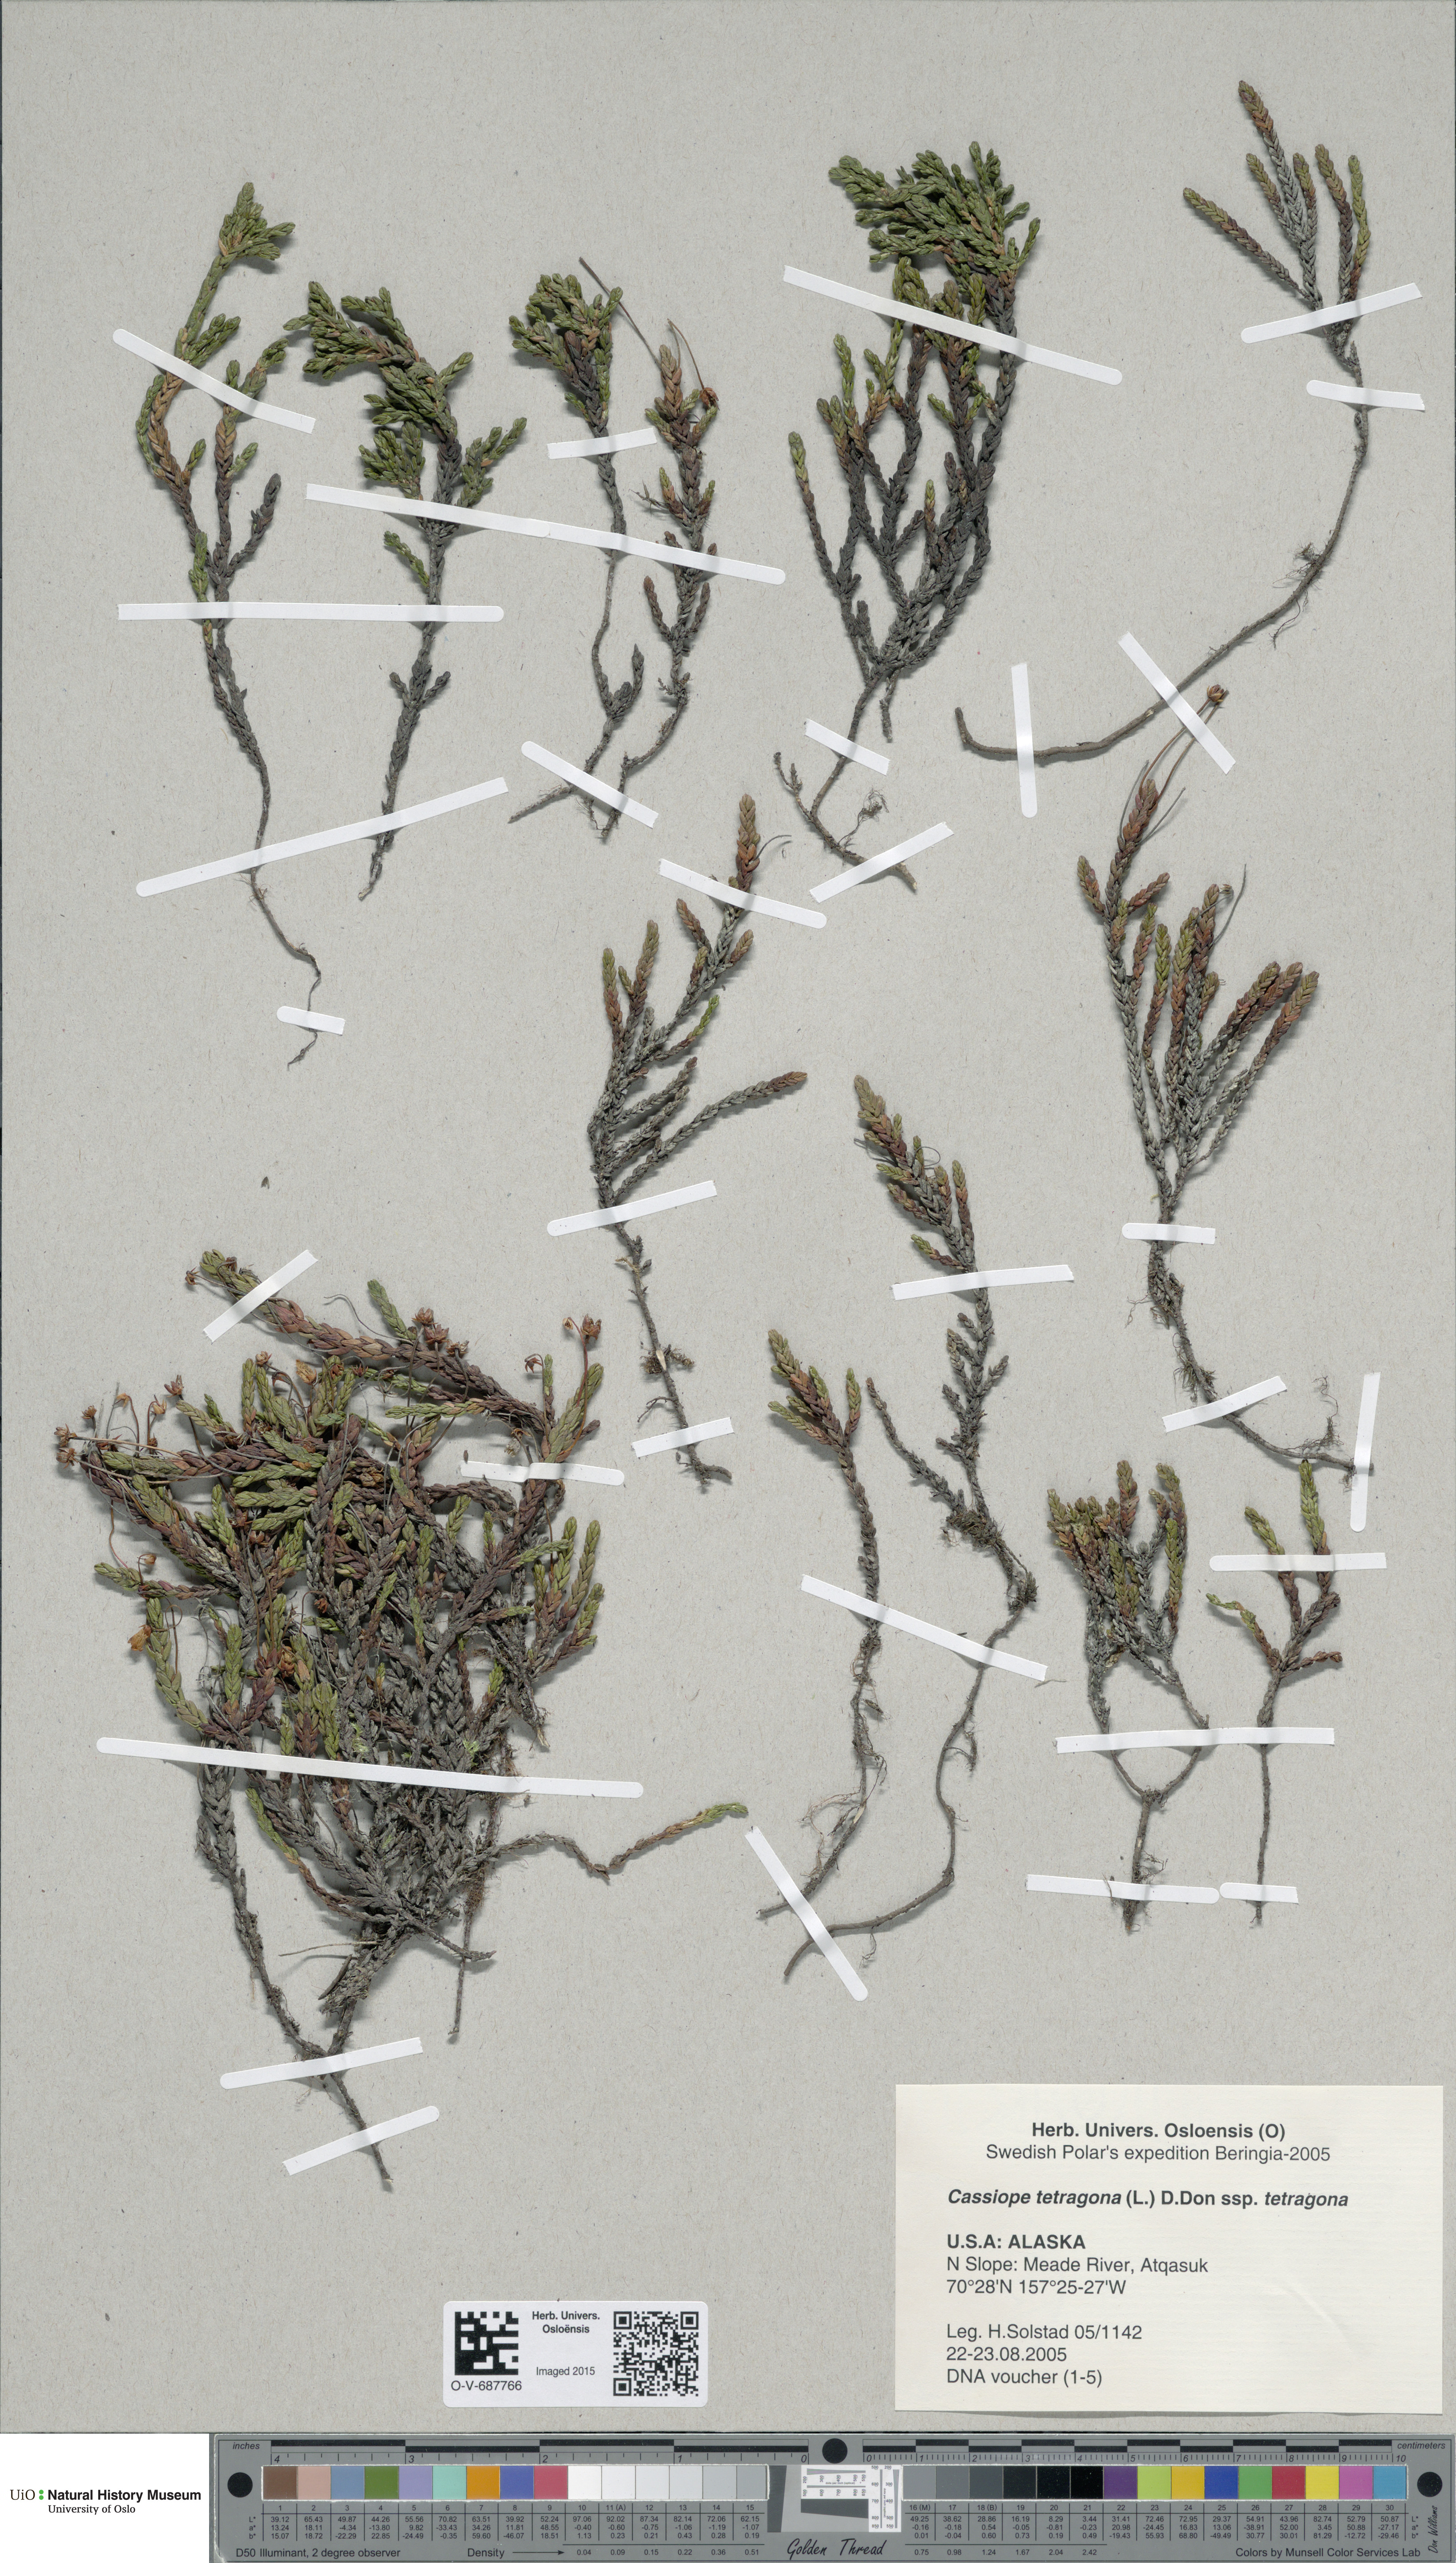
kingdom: Plantae
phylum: Tracheophyta
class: Magnoliopsida
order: Ericales
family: Ericaceae
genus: Cassiope
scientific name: Cassiope tetragona
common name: Arctic bell heather
